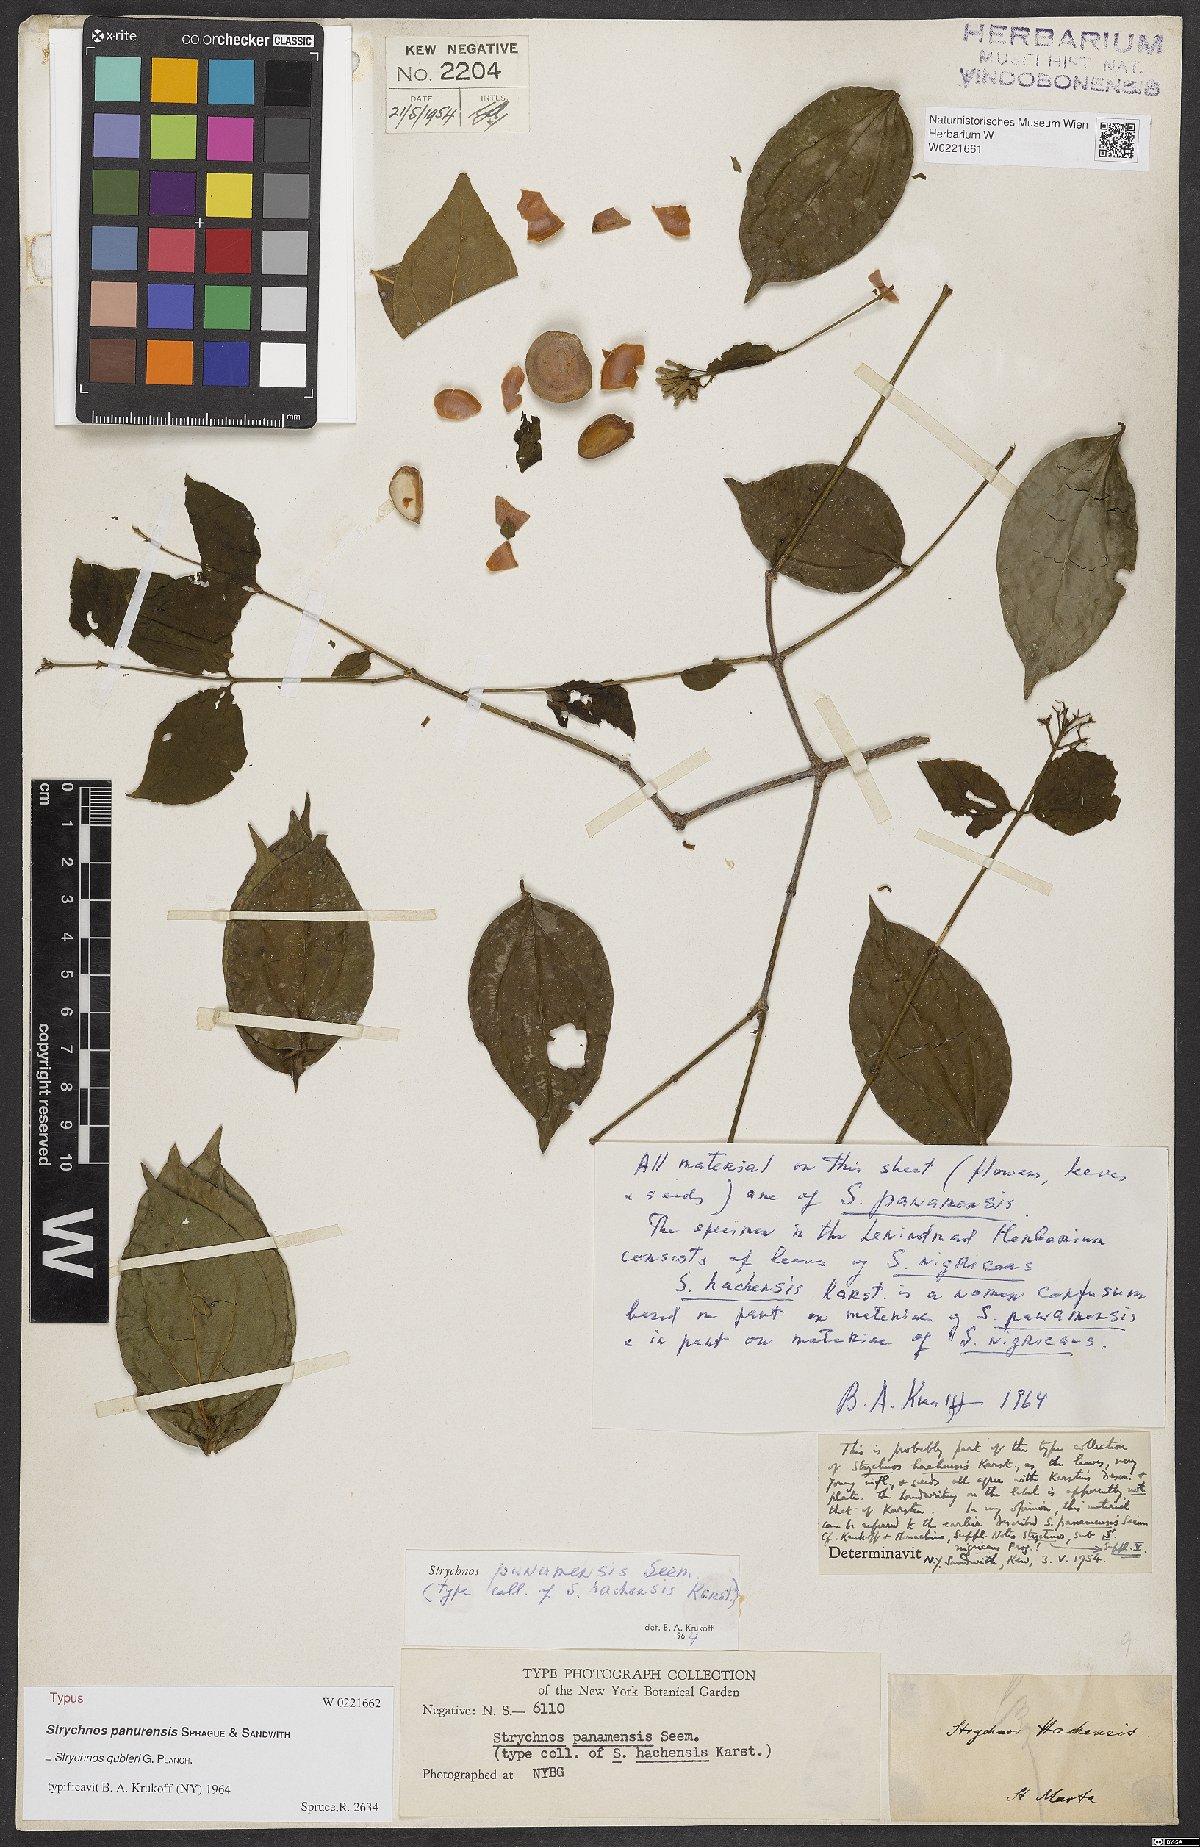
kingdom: Plantae
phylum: Tracheophyta
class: Magnoliopsida
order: Gentianales
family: Loganiaceae
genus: Strychnos
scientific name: Strychnos panamensis
